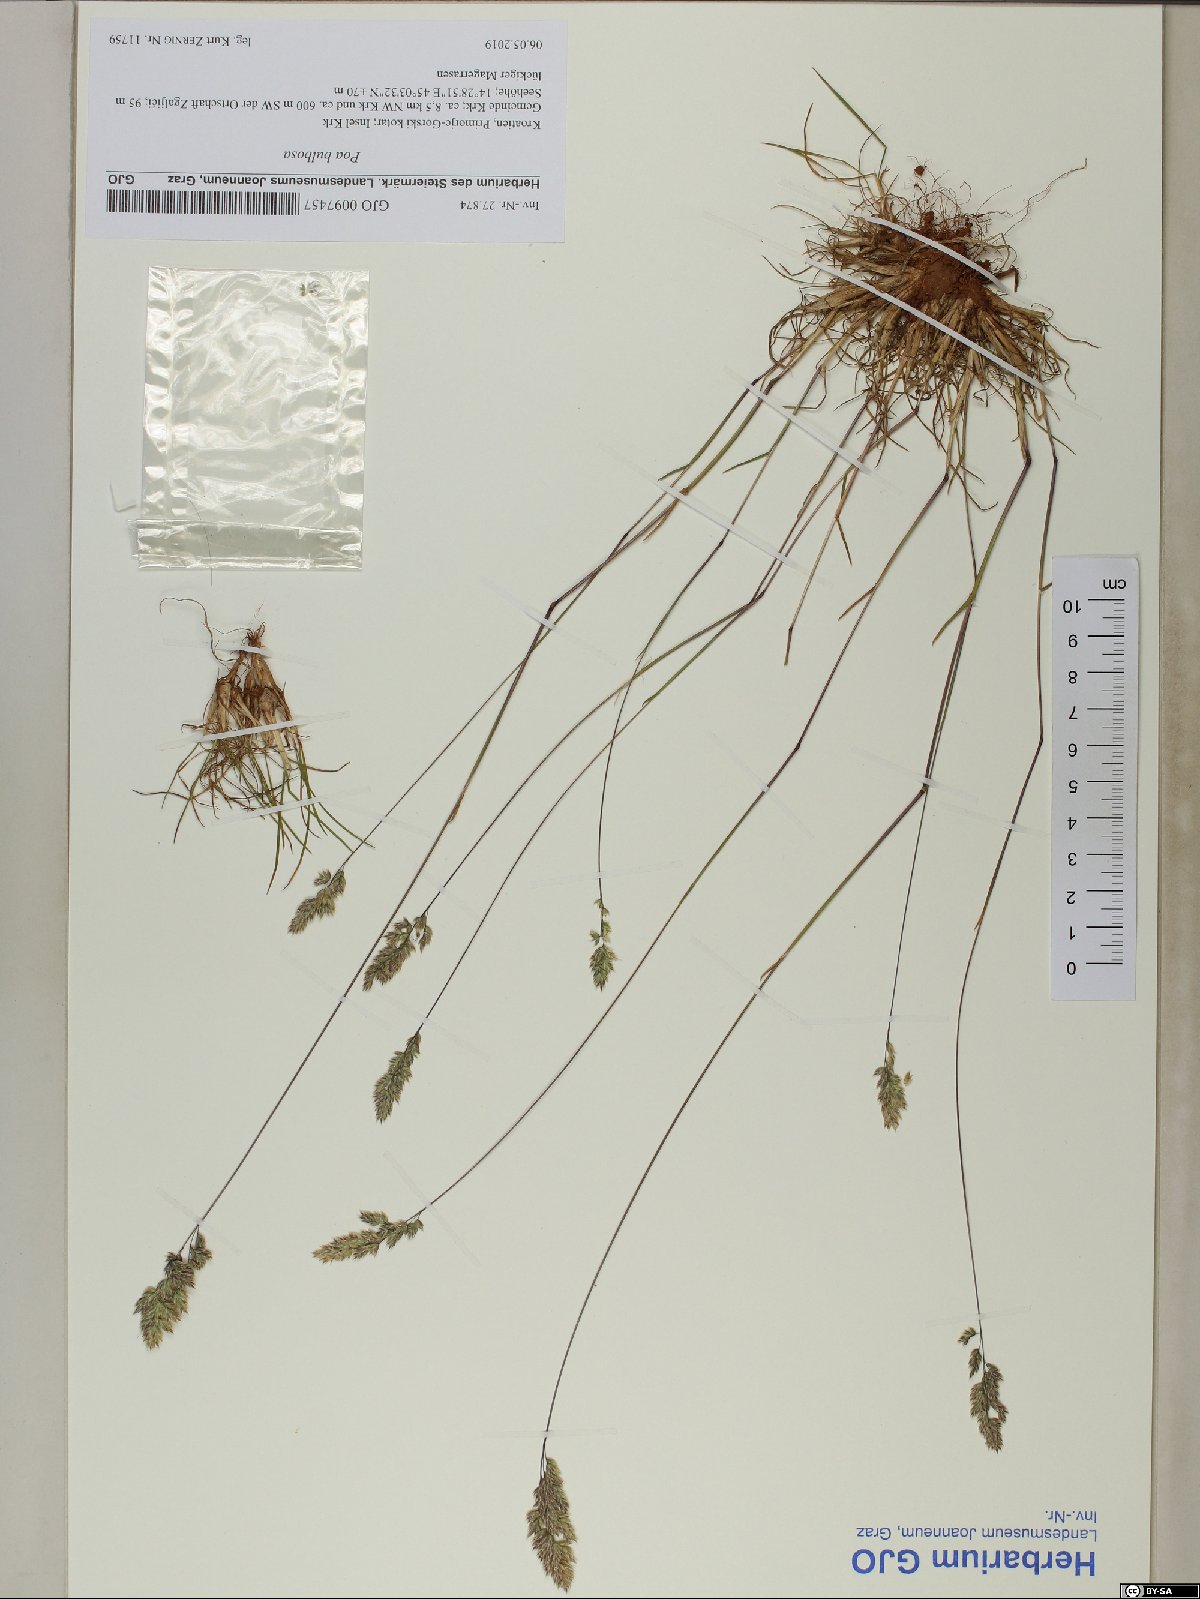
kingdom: Plantae
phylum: Tracheophyta
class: Liliopsida
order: Poales
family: Poaceae
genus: Poa
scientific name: Poa bulbosa
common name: Bulbous bluegrass
